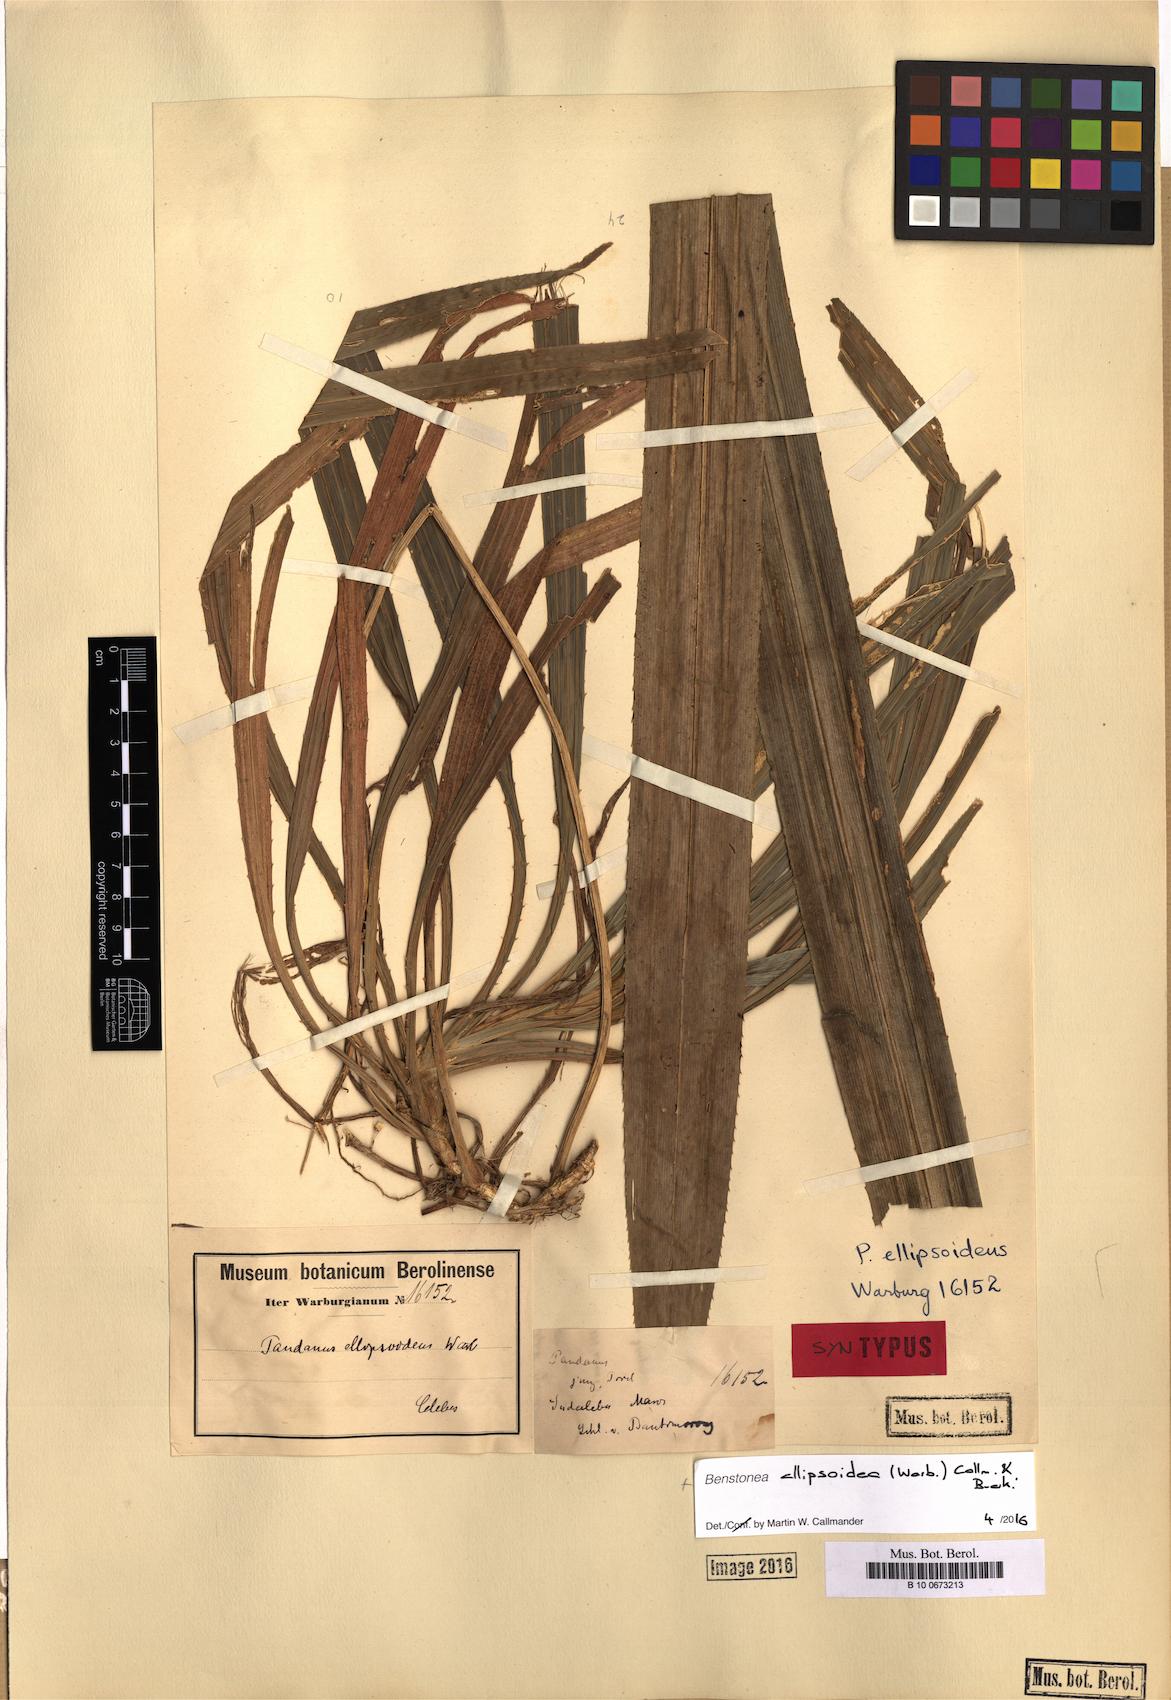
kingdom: Plantae
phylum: Tracheophyta
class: Liliopsida
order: Pandanales
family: Pandanaceae
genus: Benstonea
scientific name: Benstonea ellipsoidea
